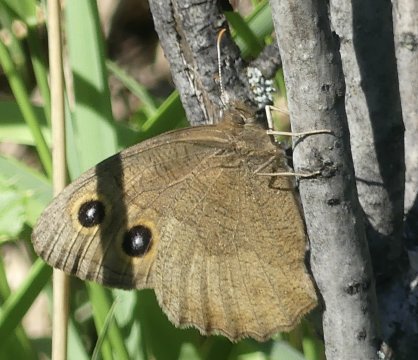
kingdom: Animalia
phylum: Arthropoda
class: Insecta
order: Lepidoptera
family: Nymphalidae
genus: Cercyonis
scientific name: Cercyonis pegala
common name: Common Wood-Nymph
